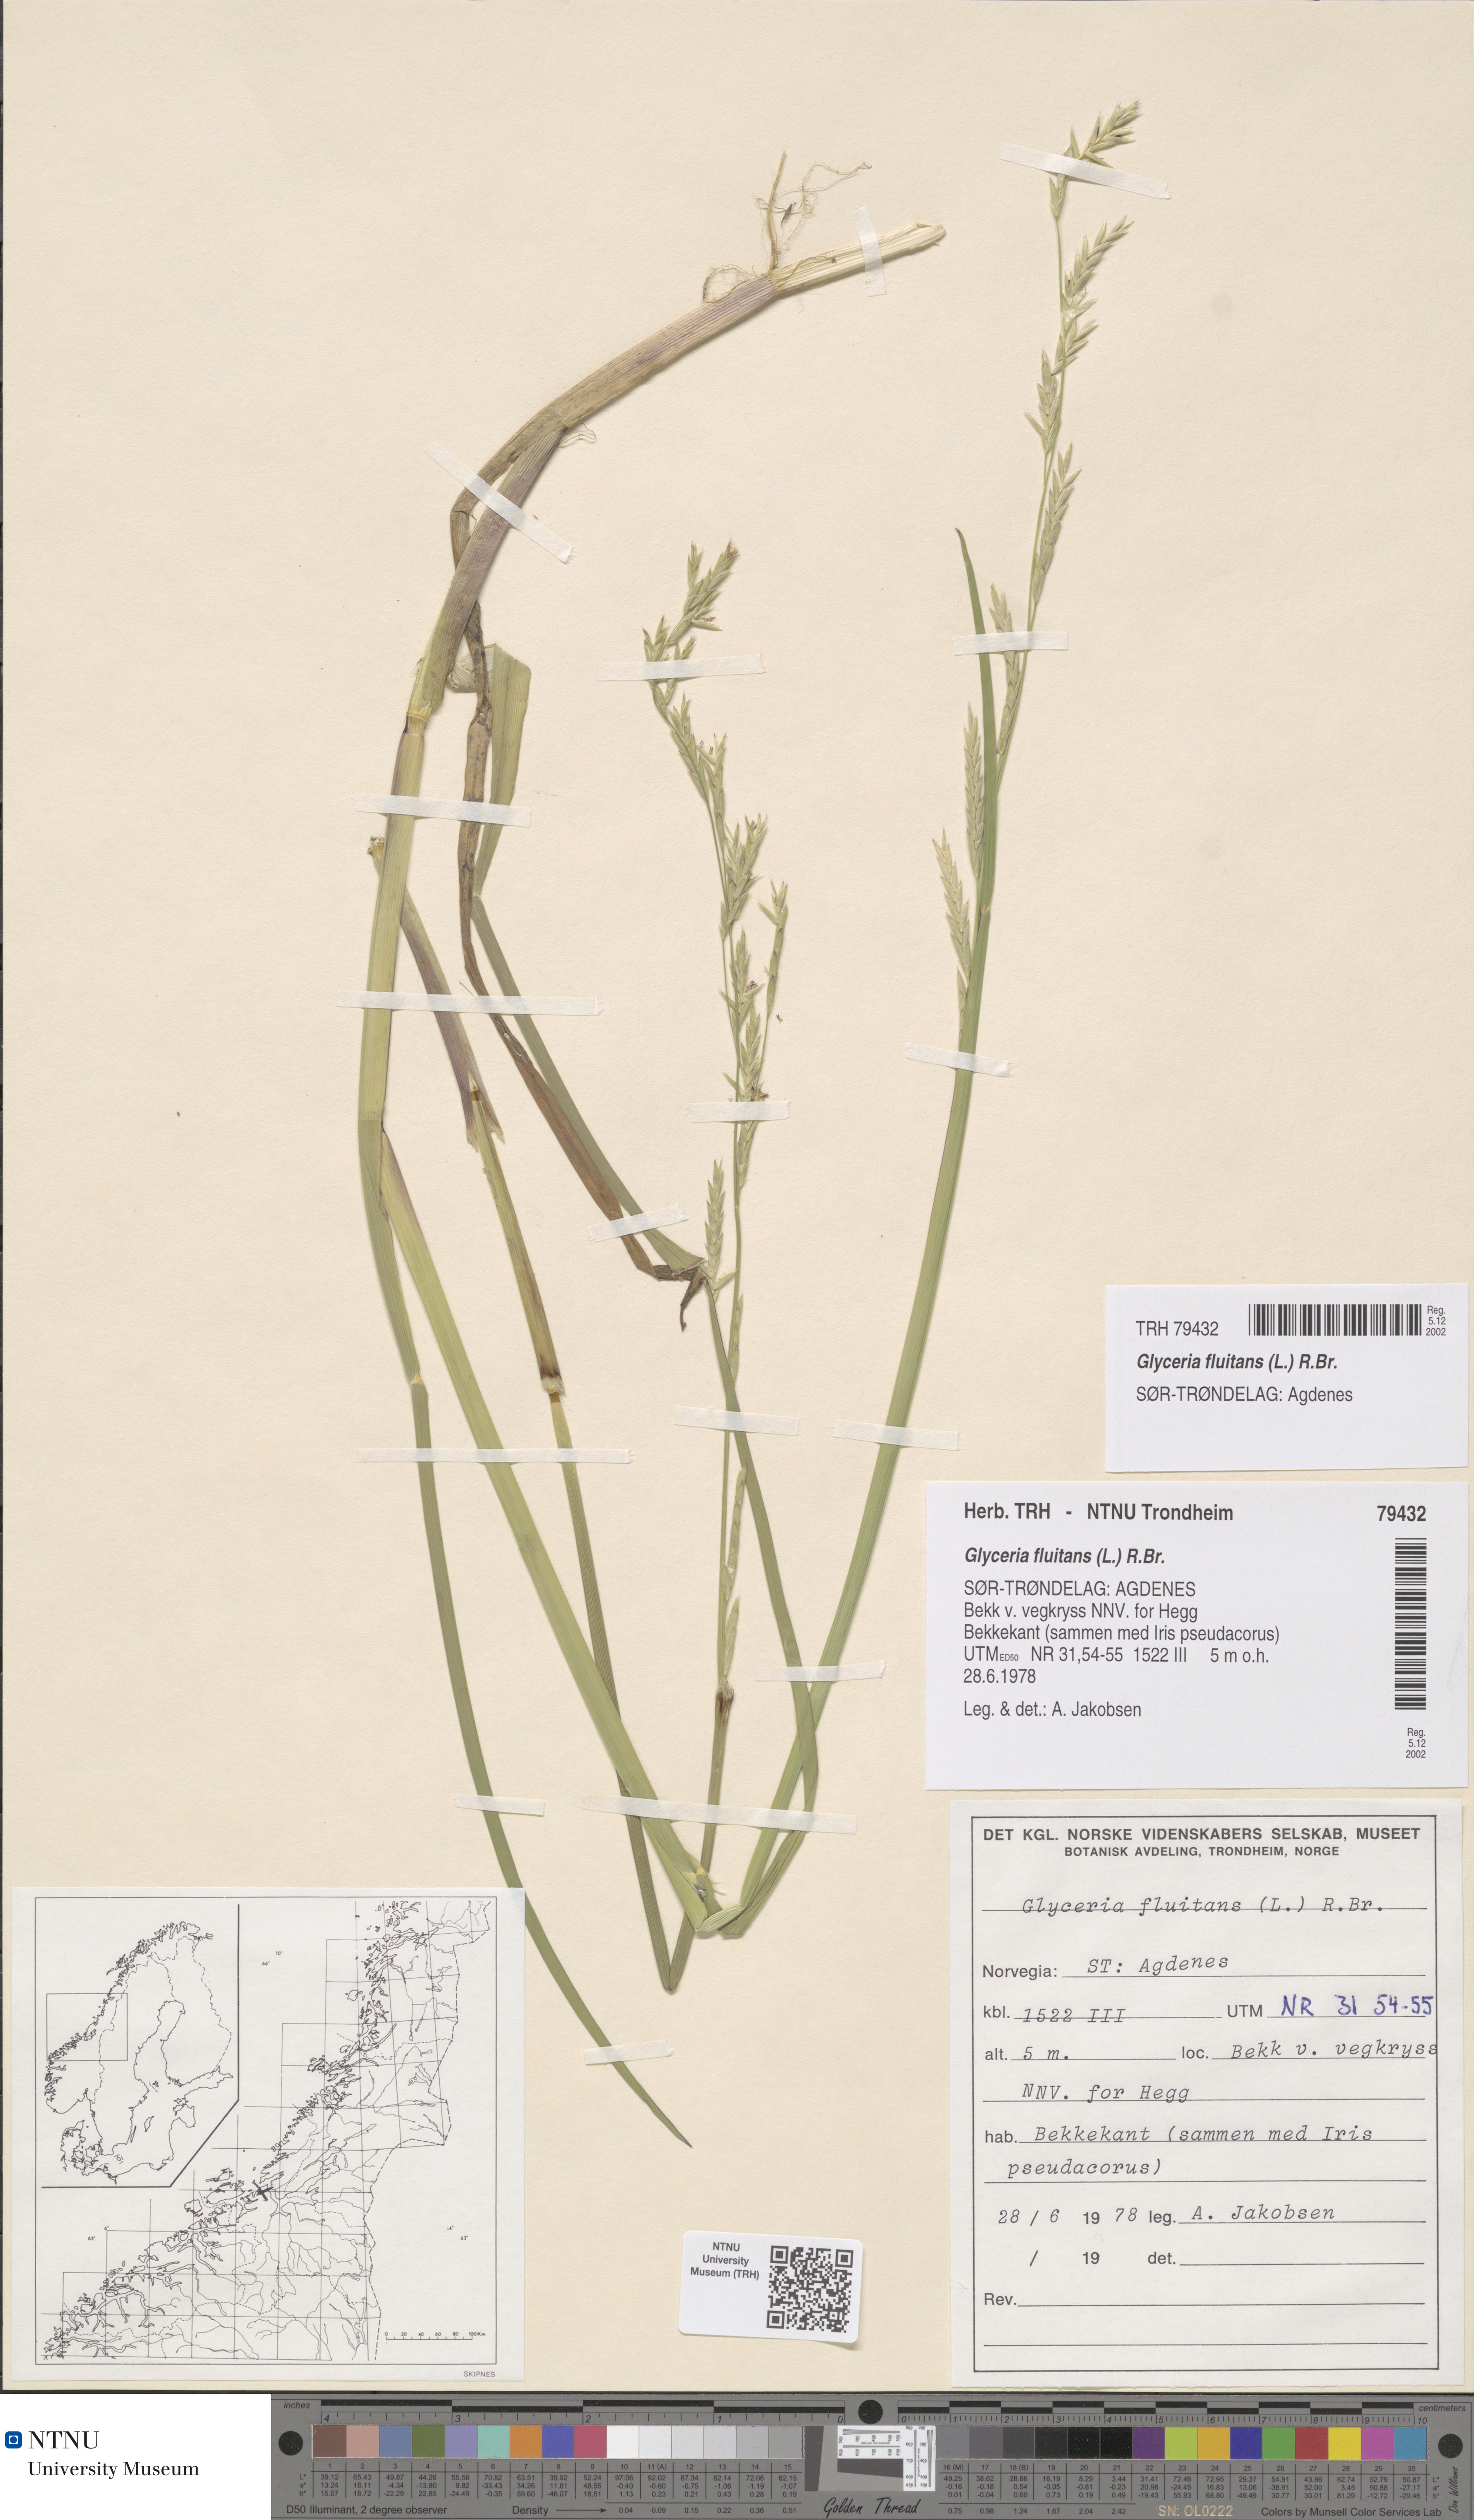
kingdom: Plantae
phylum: Tracheophyta
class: Liliopsida
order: Poales
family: Poaceae
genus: Glyceria
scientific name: Glyceria fluitans
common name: Floating sweet-grass
